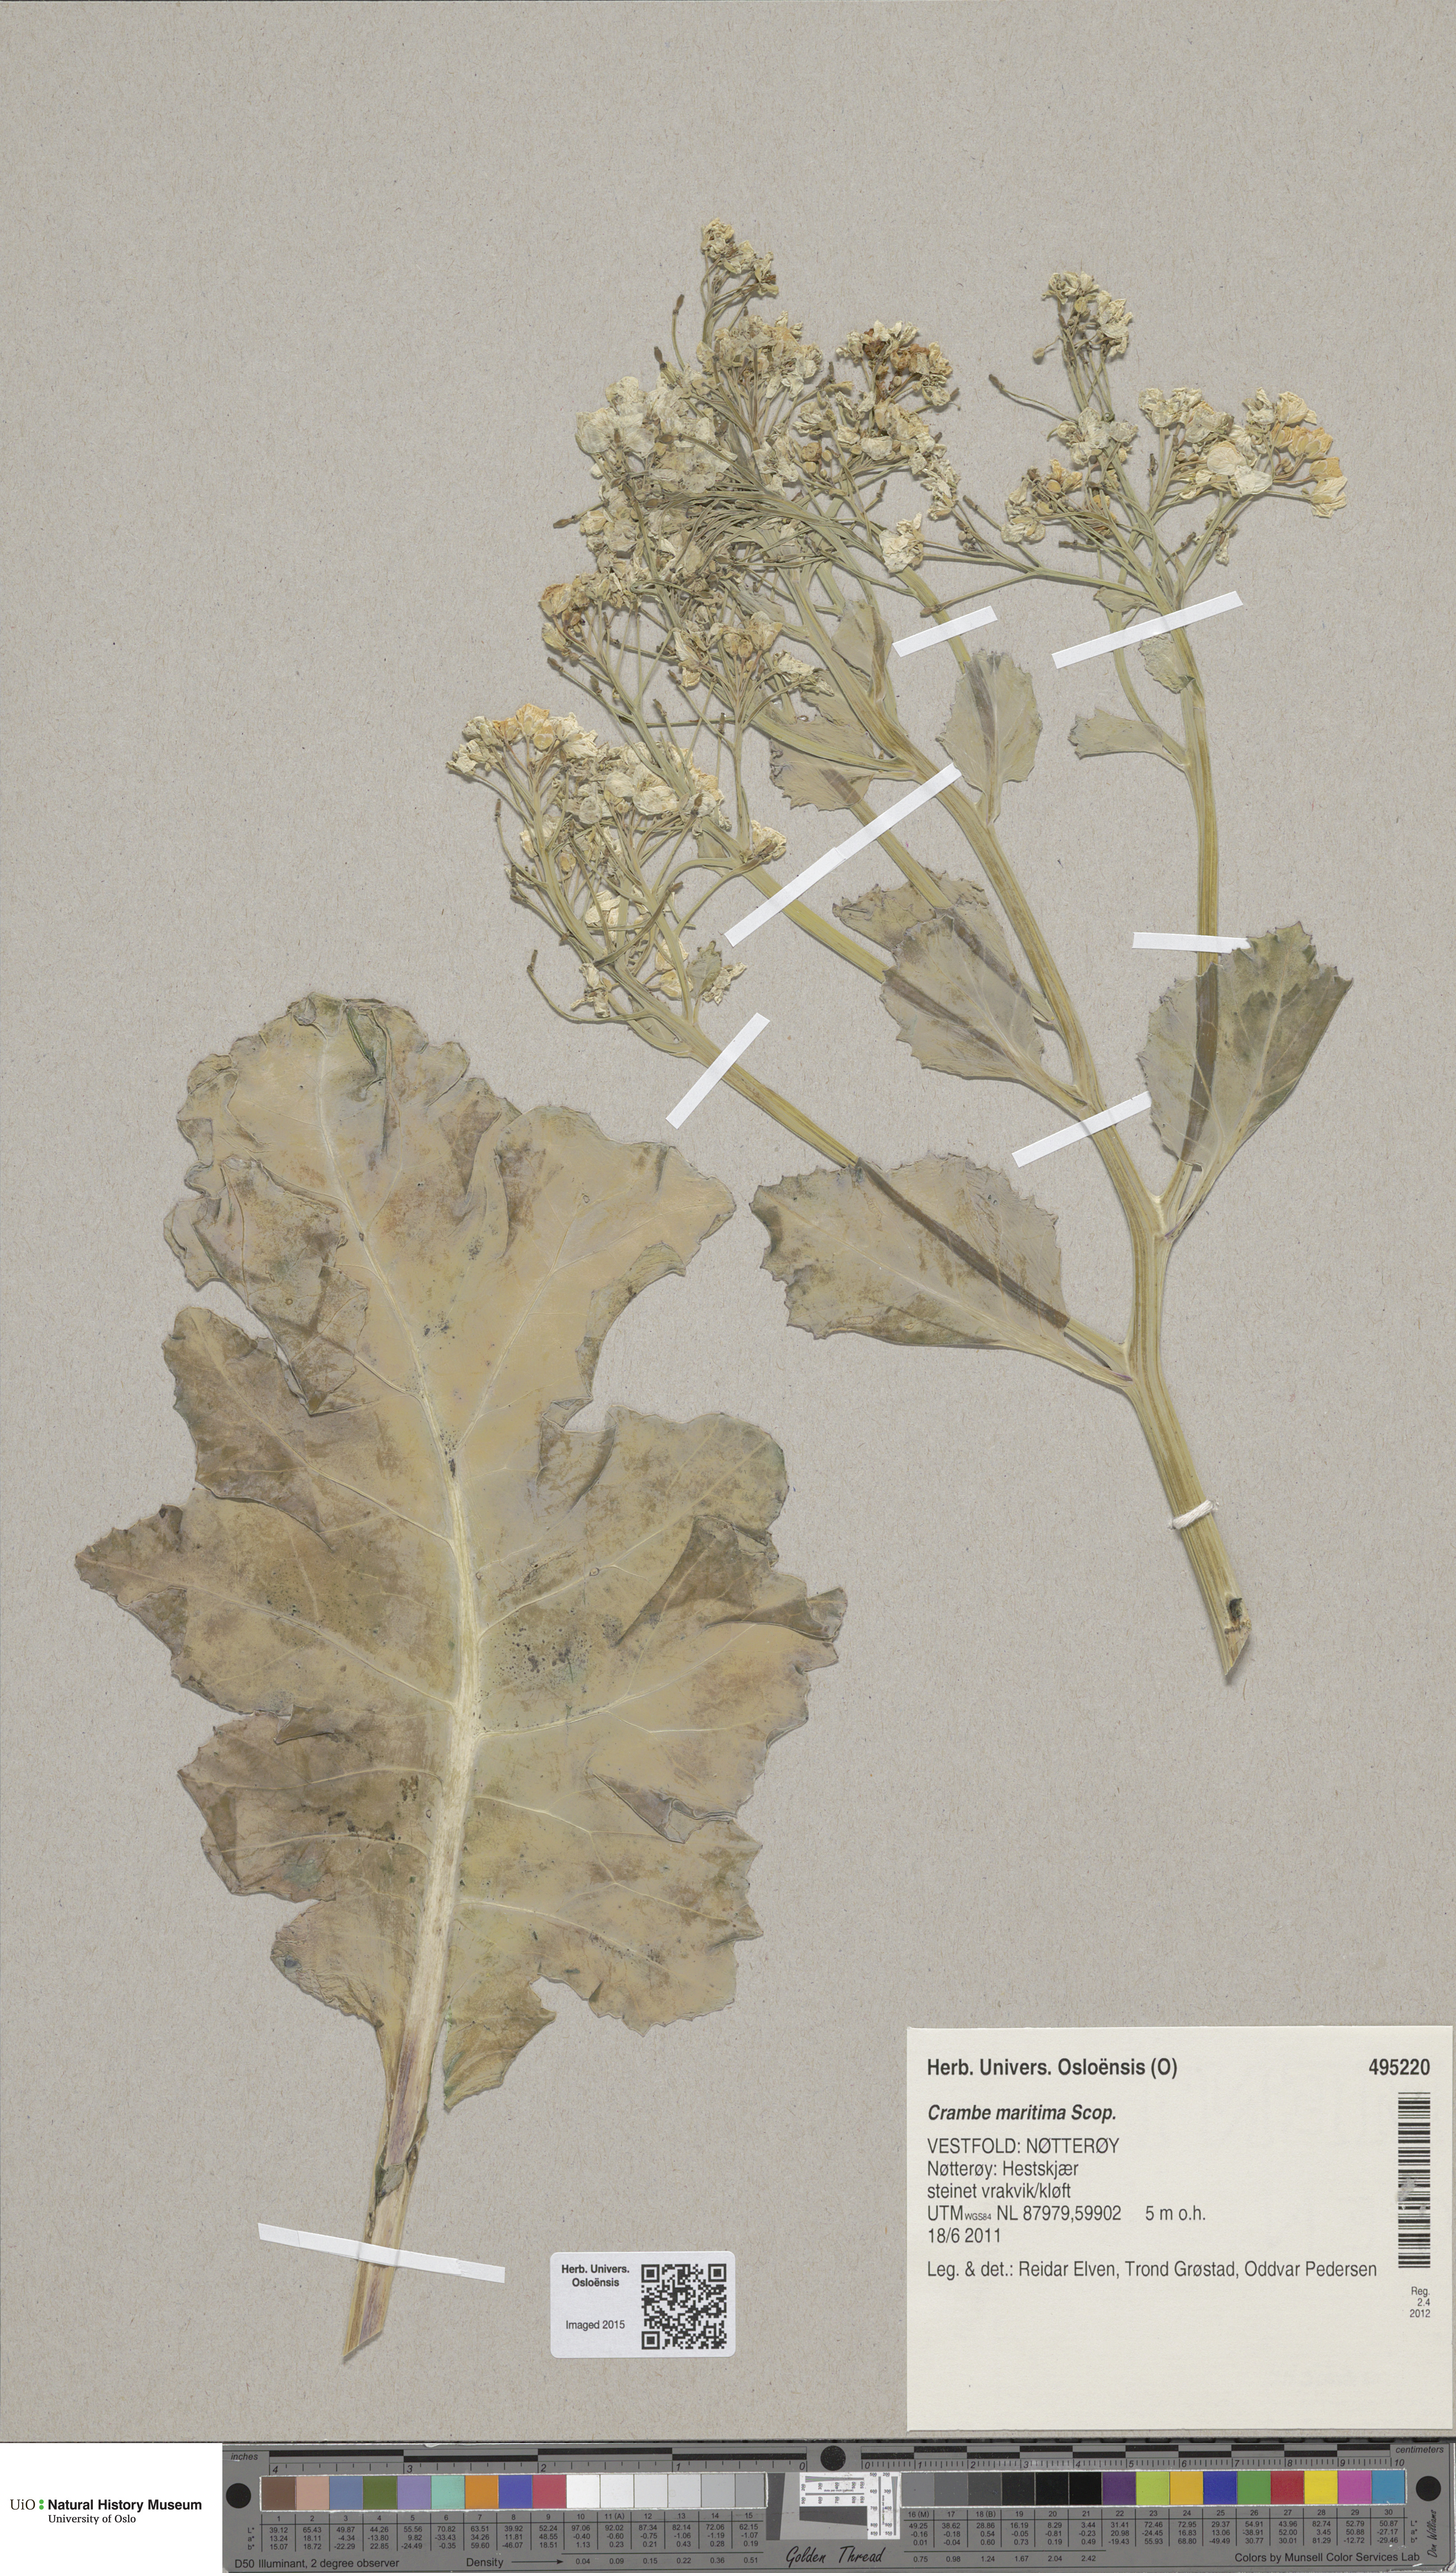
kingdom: Plantae
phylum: Tracheophyta
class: Magnoliopsida
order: Brassicales
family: Brassicaceae
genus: Crambe
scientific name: Crambe maritima
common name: Sea-kale
